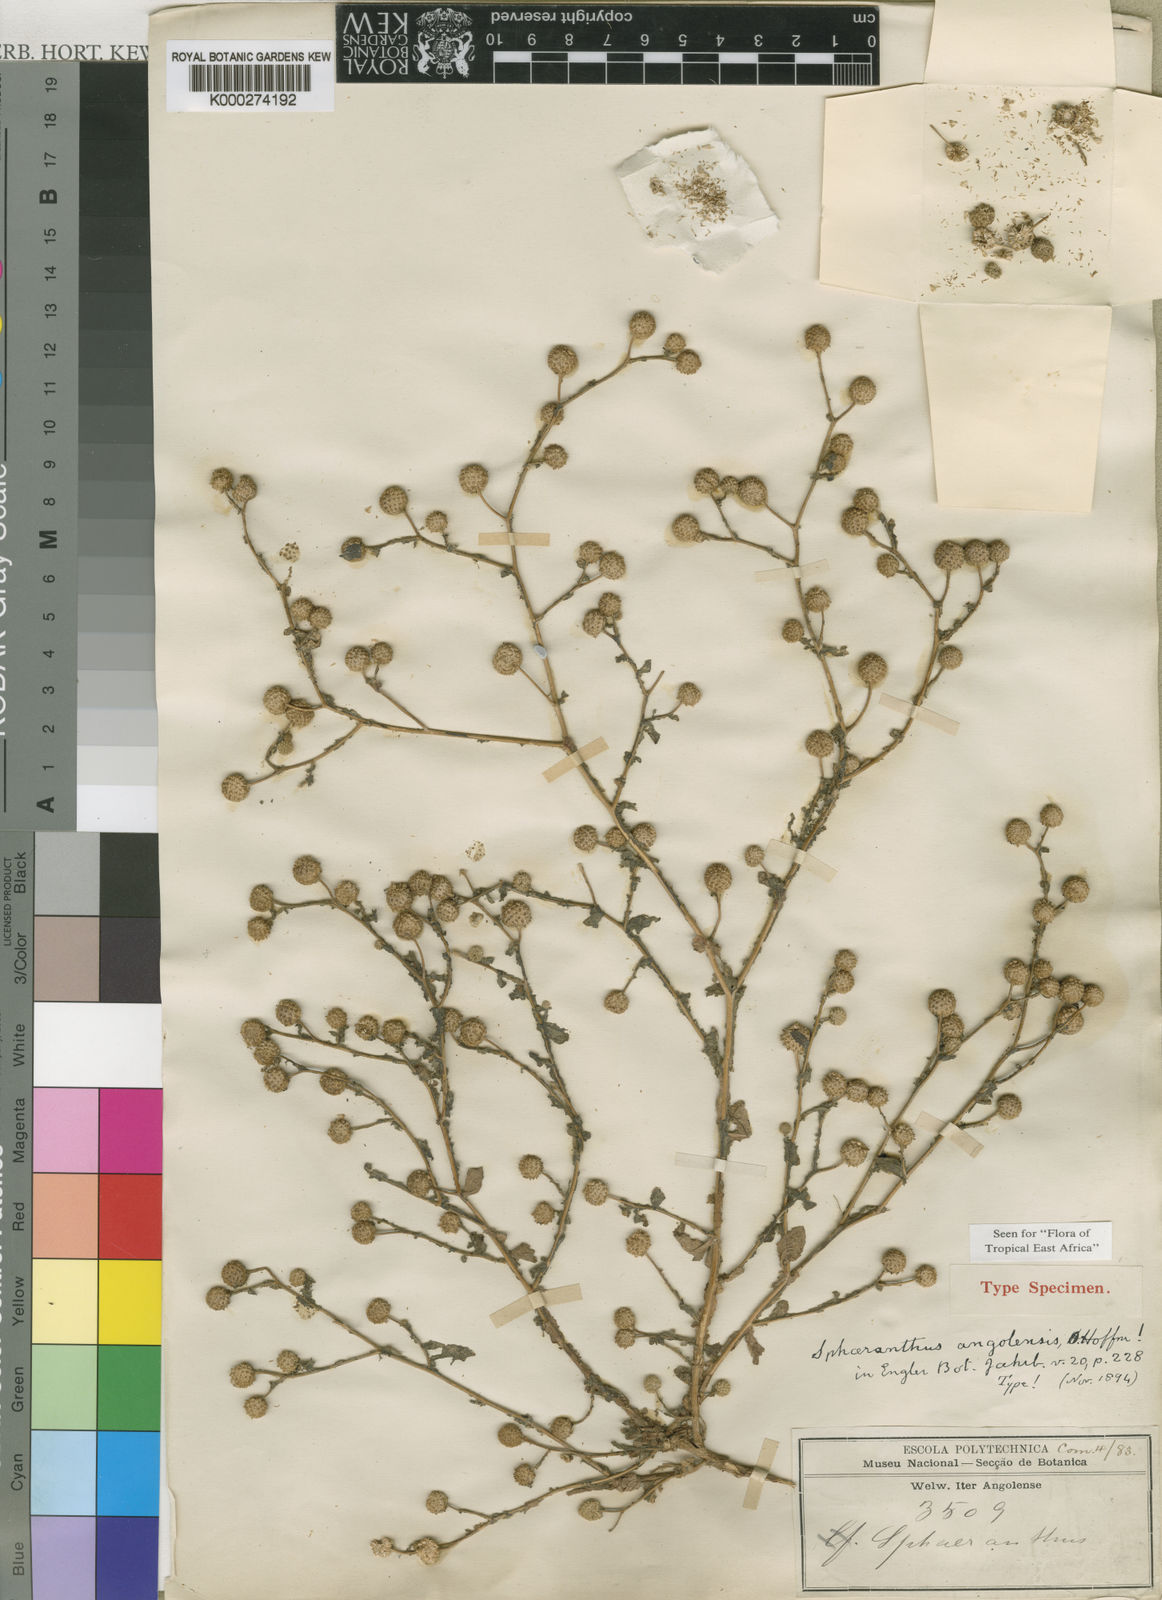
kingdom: Plantae
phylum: Tracheophyta
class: Magnoliopsida
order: Asterales
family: Asteraceae
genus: Sphaeranthus
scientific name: Sphaeranthus angolensis
